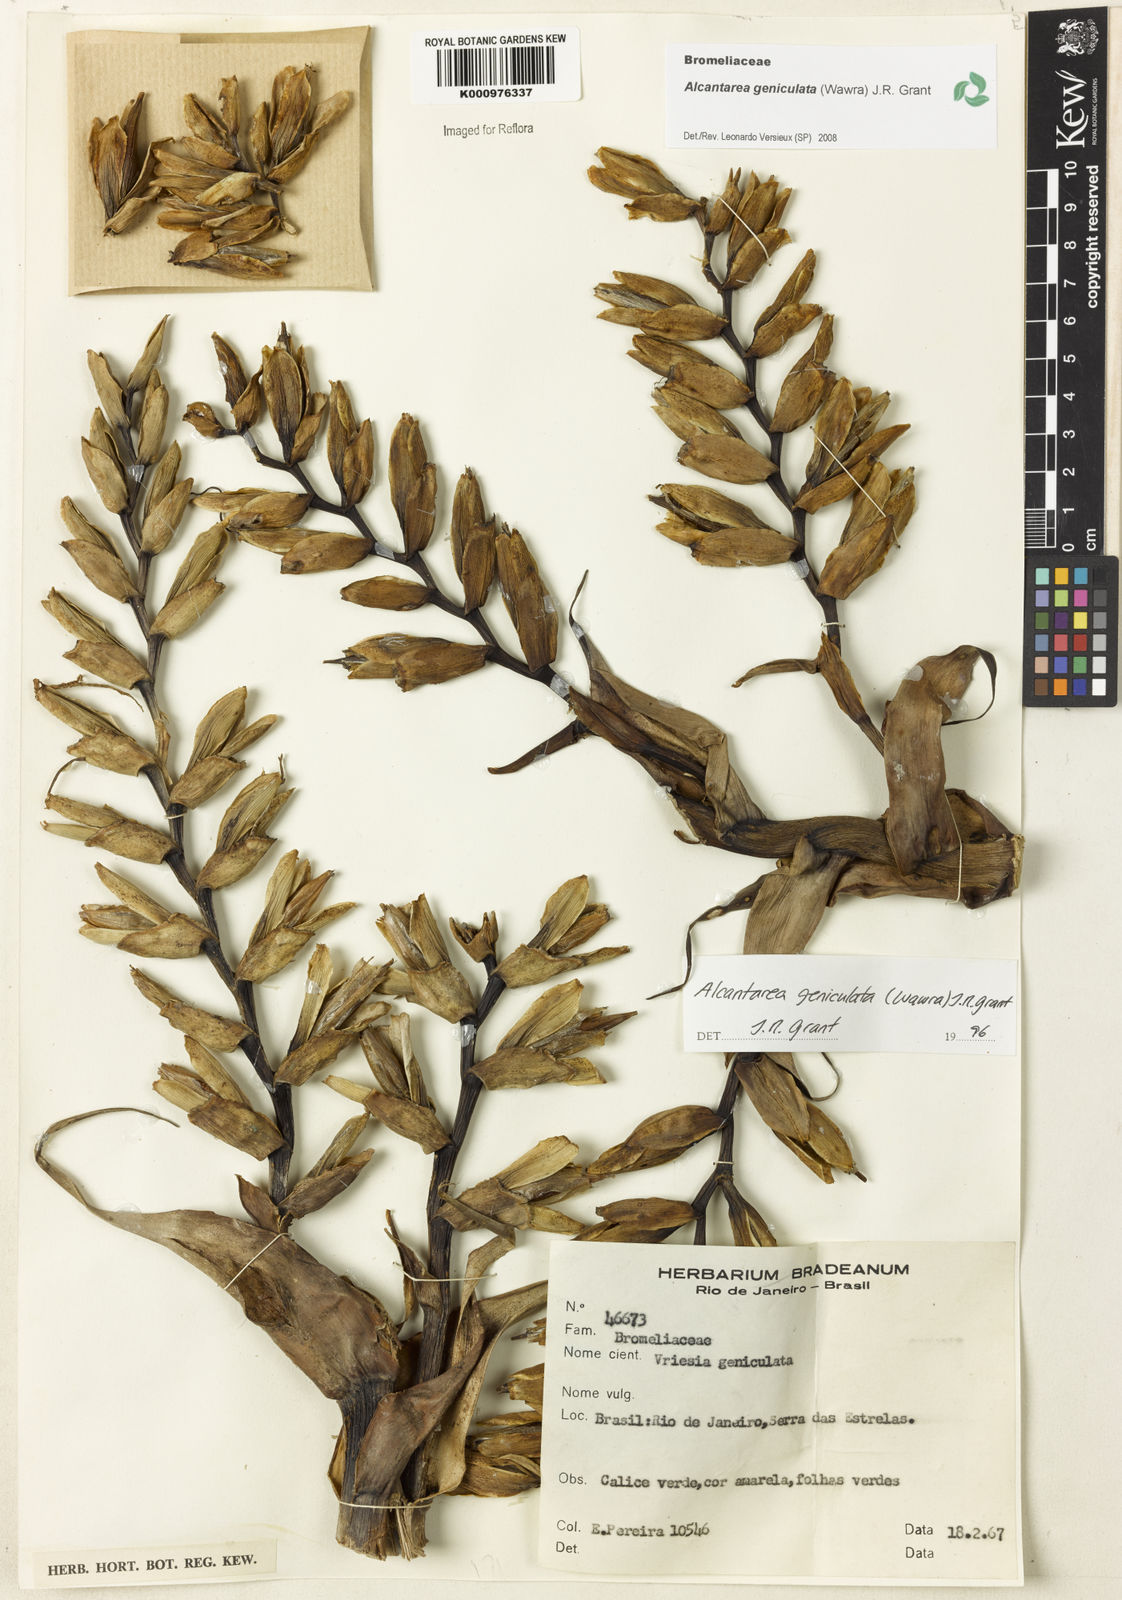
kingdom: Plantae
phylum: Tracheophyta
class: Liliopsida
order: Poales
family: Bromeliaceae
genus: Alcantarea
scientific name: Alcantarea geniculata
